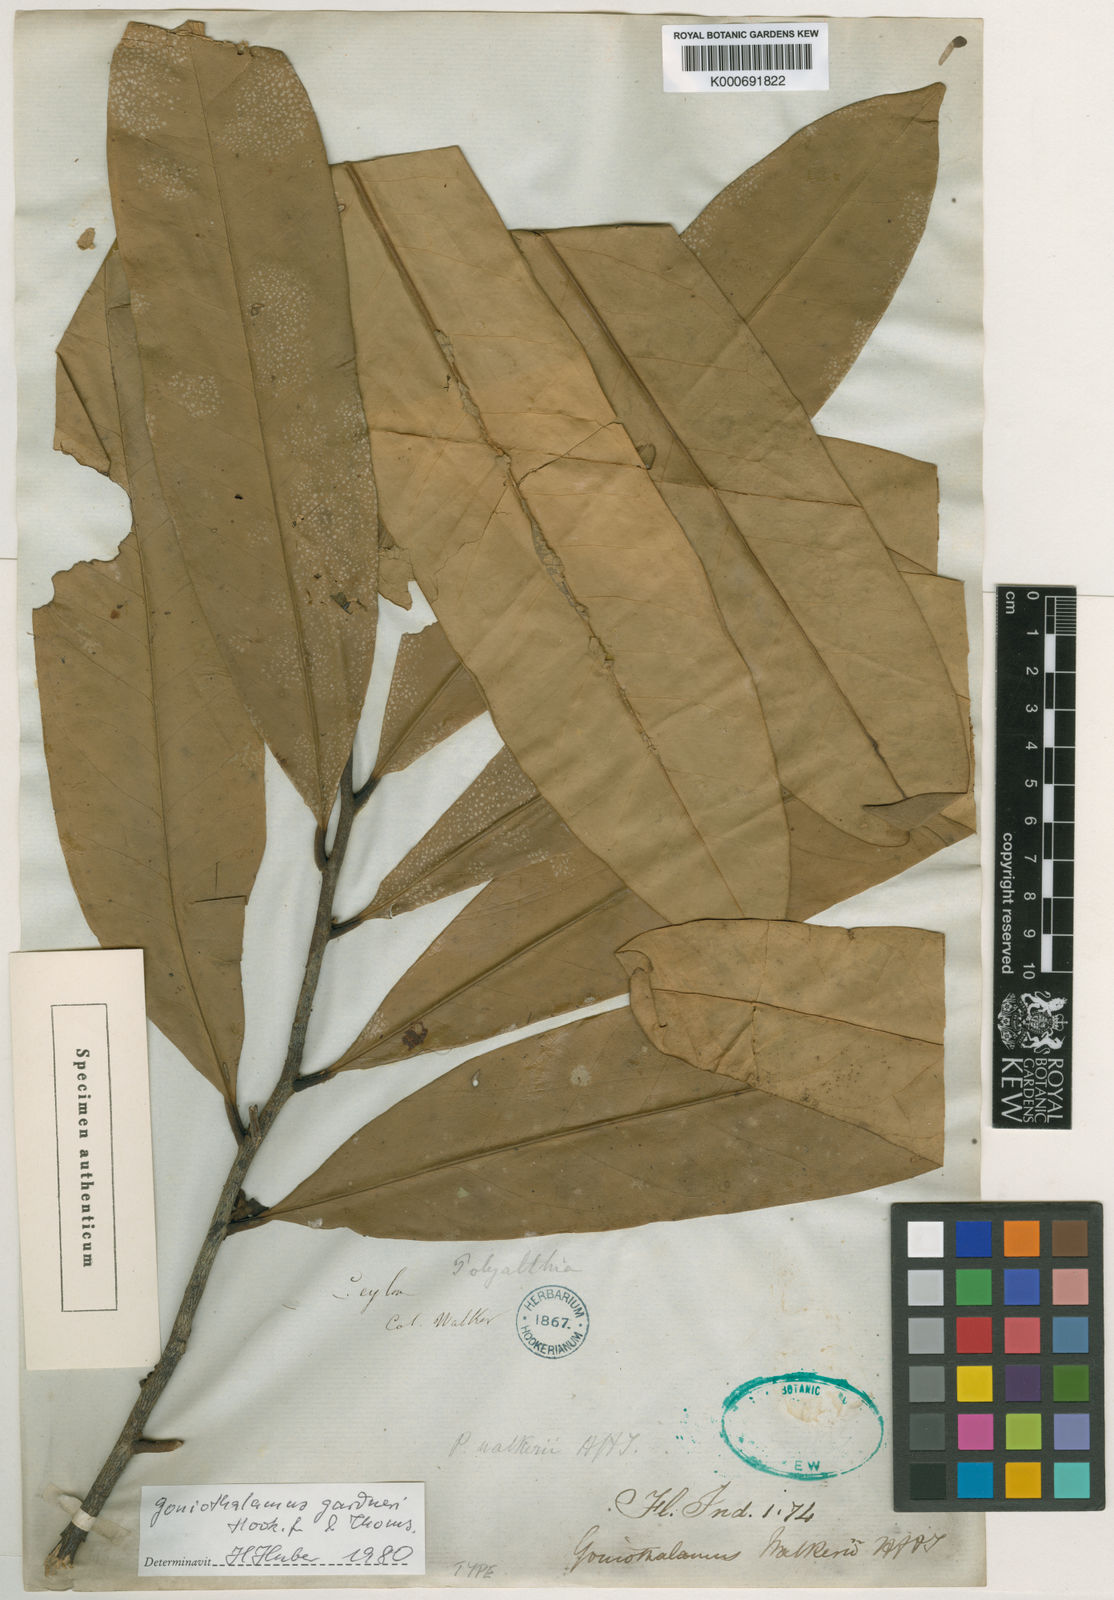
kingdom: Plantae
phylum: Tracheophyta
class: Magnoliopsida
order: Magnoliales
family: Annonaceae
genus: Goniothalamus
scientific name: Goniothalamus walkeri
